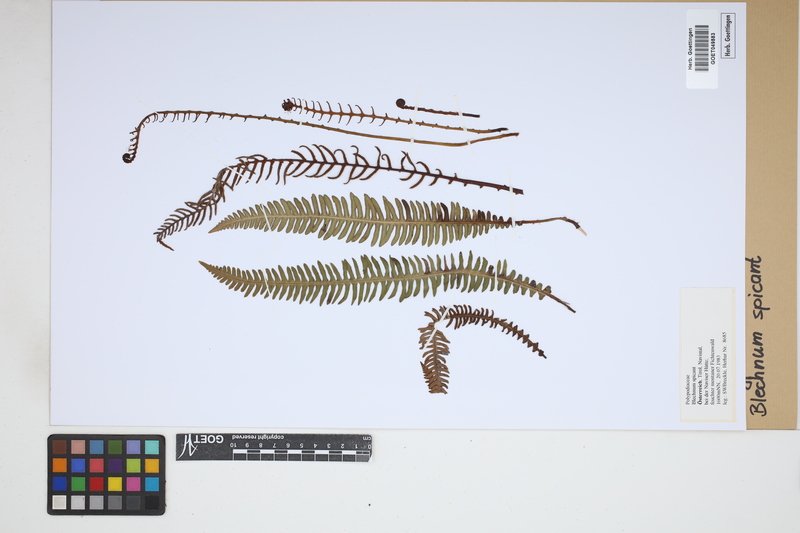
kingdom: Plantae
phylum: Tracheophyta
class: Polypodiopsida
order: Polypodiales
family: Blechnaceae
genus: Struthiopteris
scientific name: Struthiopteris spicant
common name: Deer fern
